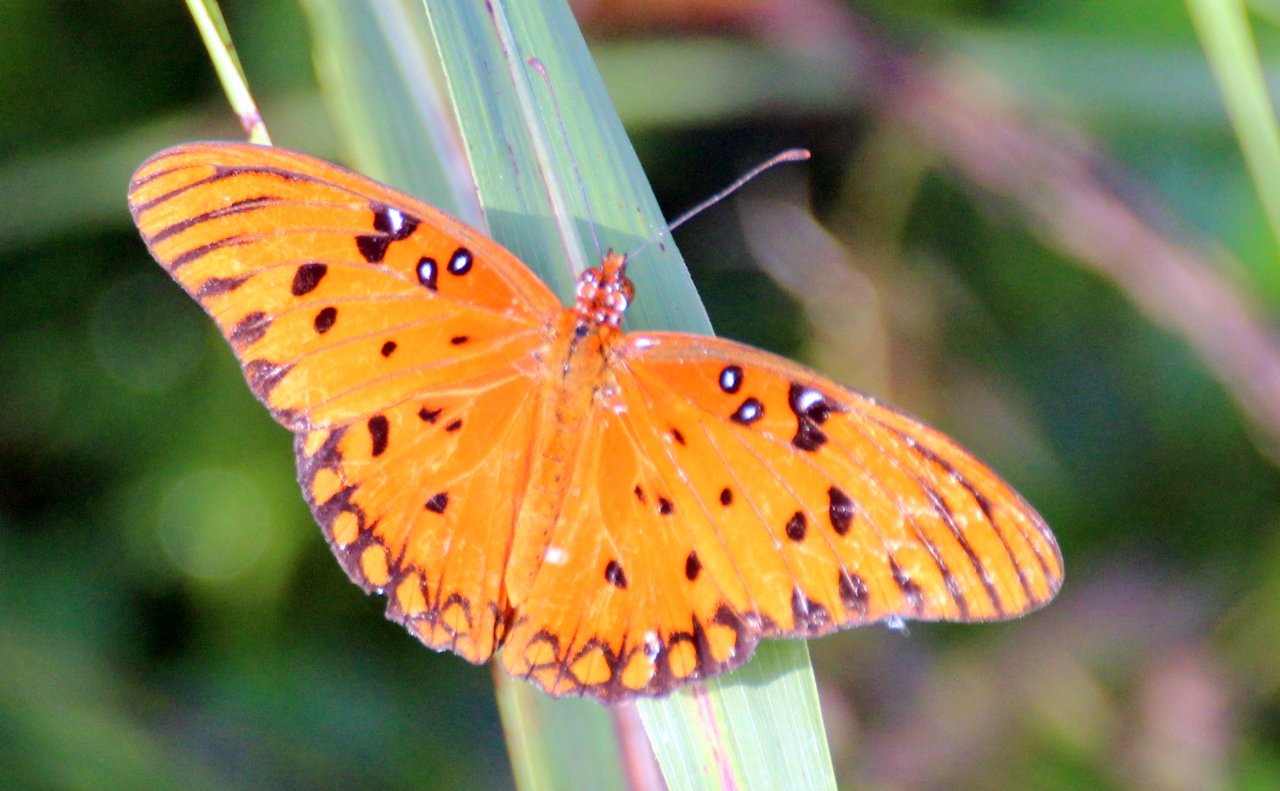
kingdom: Animalia
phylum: Arthropoda
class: Insecta
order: Lepidoptera
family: Nymphalidae
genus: Dione
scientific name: Dione vanillae
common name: Gulf Fritillary
